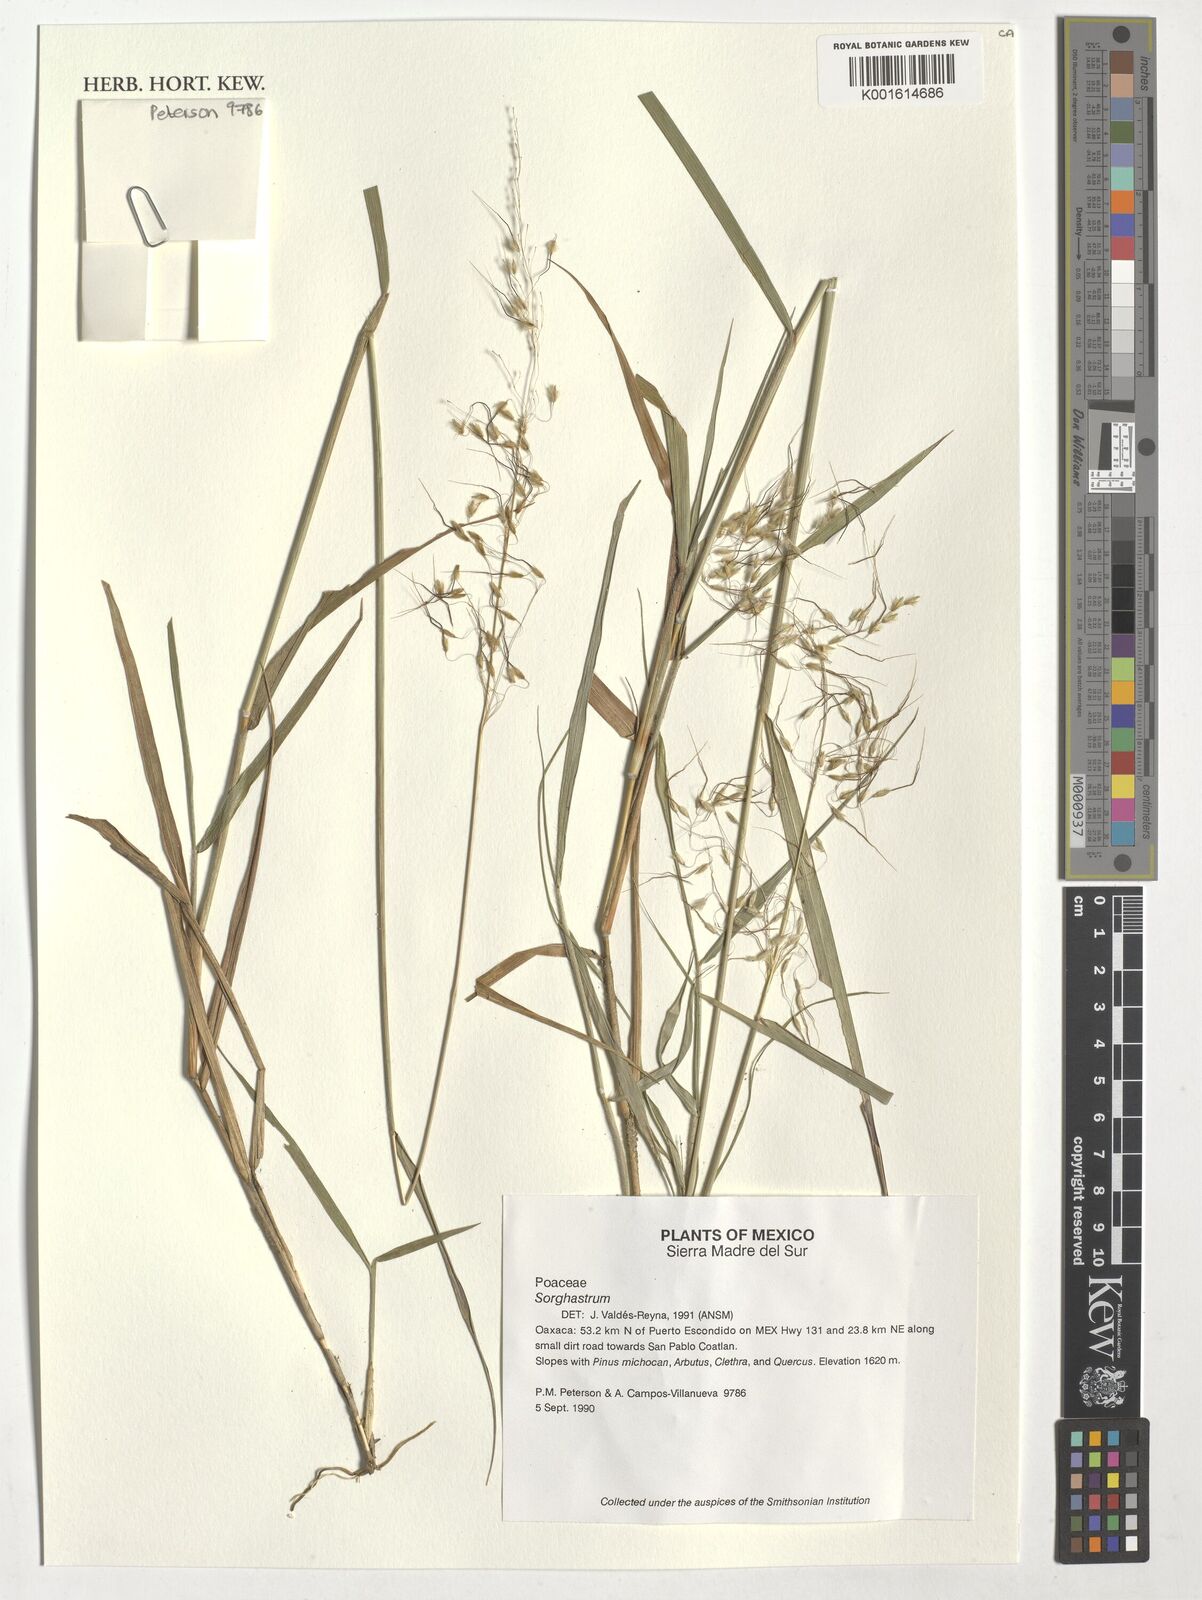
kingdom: Plantae
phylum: Tracheophyta
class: Liliopsida
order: Poales
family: Poaceae
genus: Sorghastrum
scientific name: Sorghastrum
